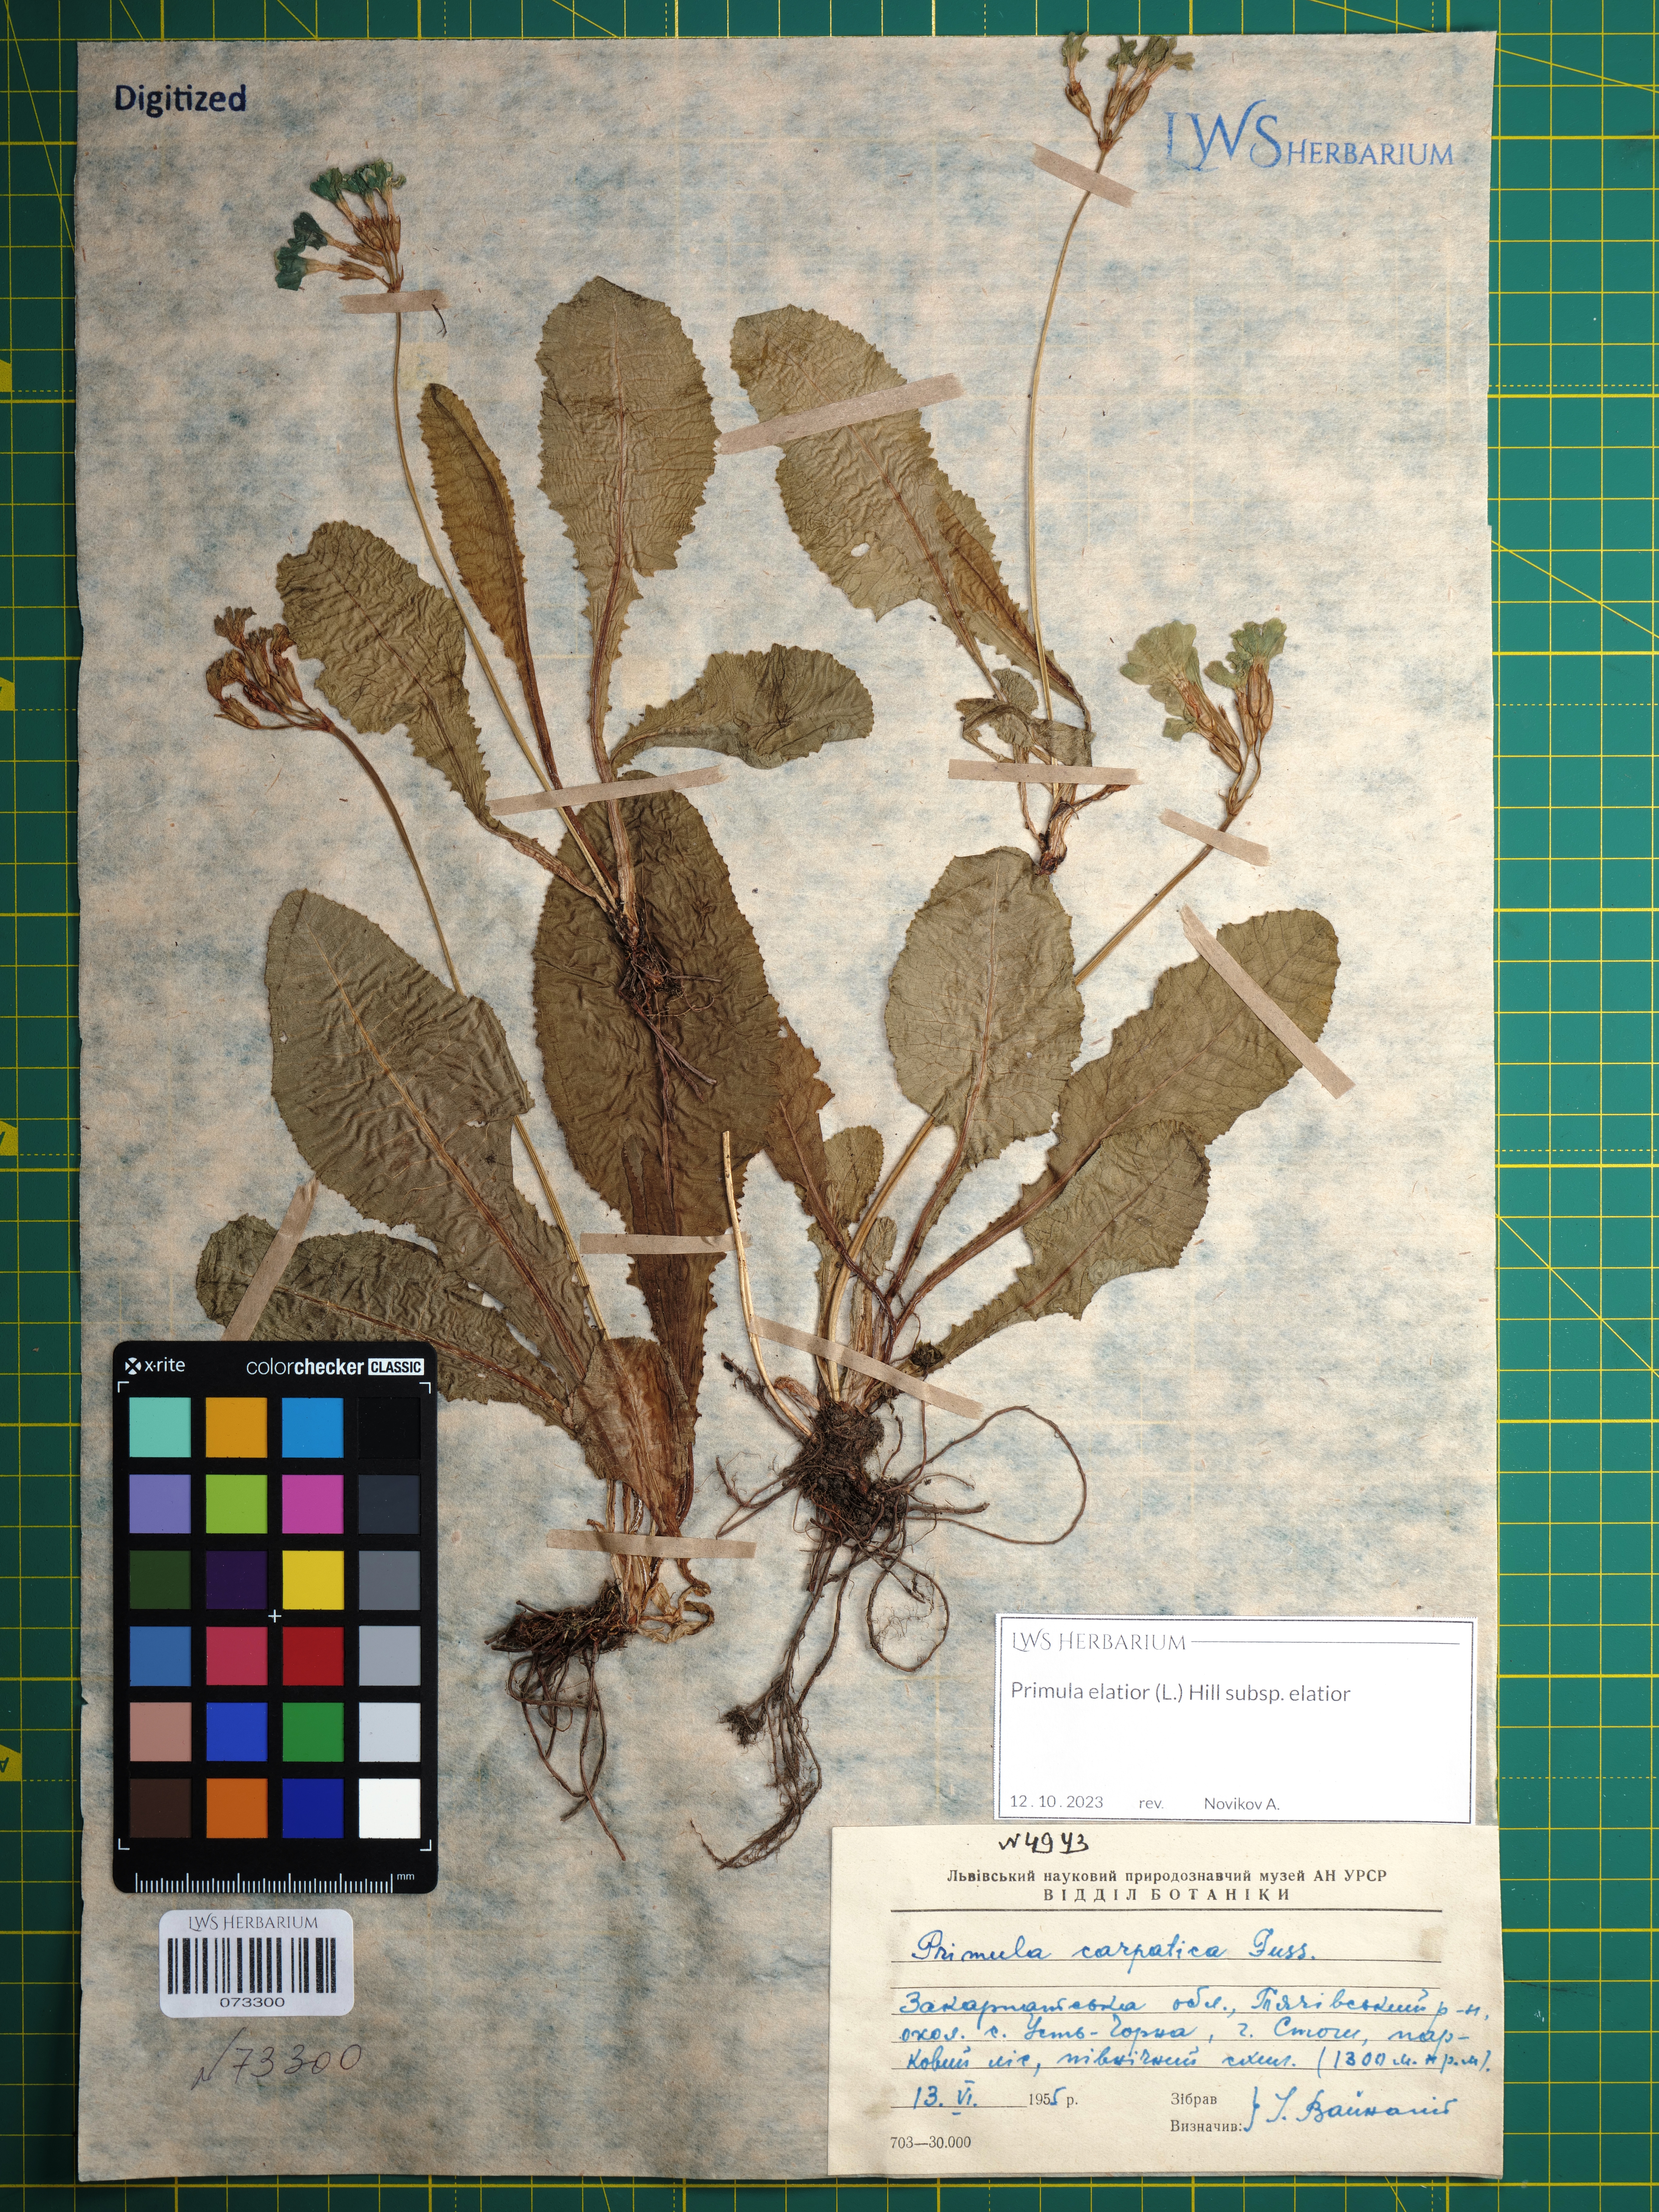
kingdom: Plantae
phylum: Tracheophyta
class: Magnoliopsida
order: Ericales
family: Primulaceae
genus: Primula
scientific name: Primula elatior
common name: Oxlip
